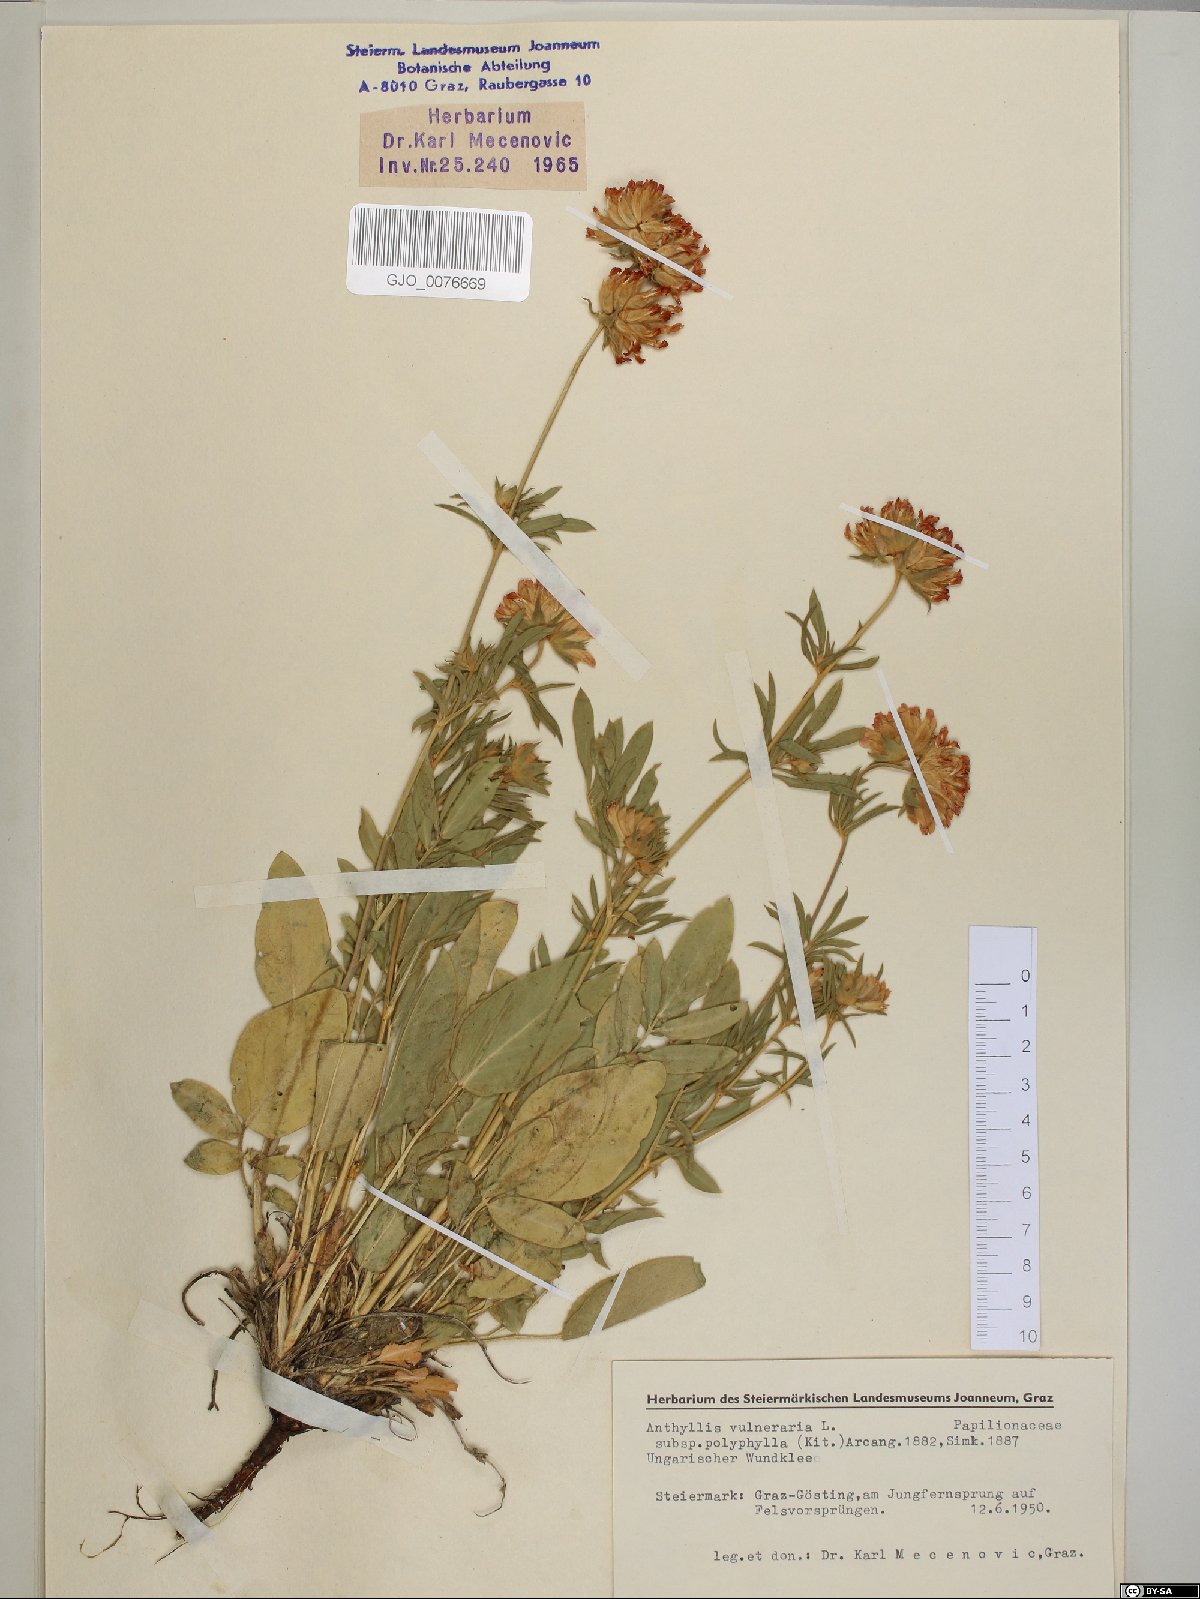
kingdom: Plantae
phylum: Tracheophyta
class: Magnoliopsida
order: Fabales
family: Fabaceae
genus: Anthyllis
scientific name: Anthyllis vulneraria
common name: Kidney vetch
